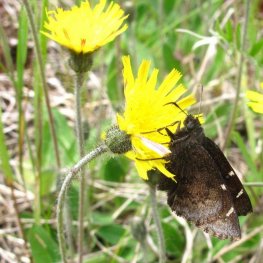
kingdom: Animalia
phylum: Arthropoda
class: Insecta
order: Lepidoptera
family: Hesperiidae
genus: Autochton
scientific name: Autochton
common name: Northern Cloudywing
